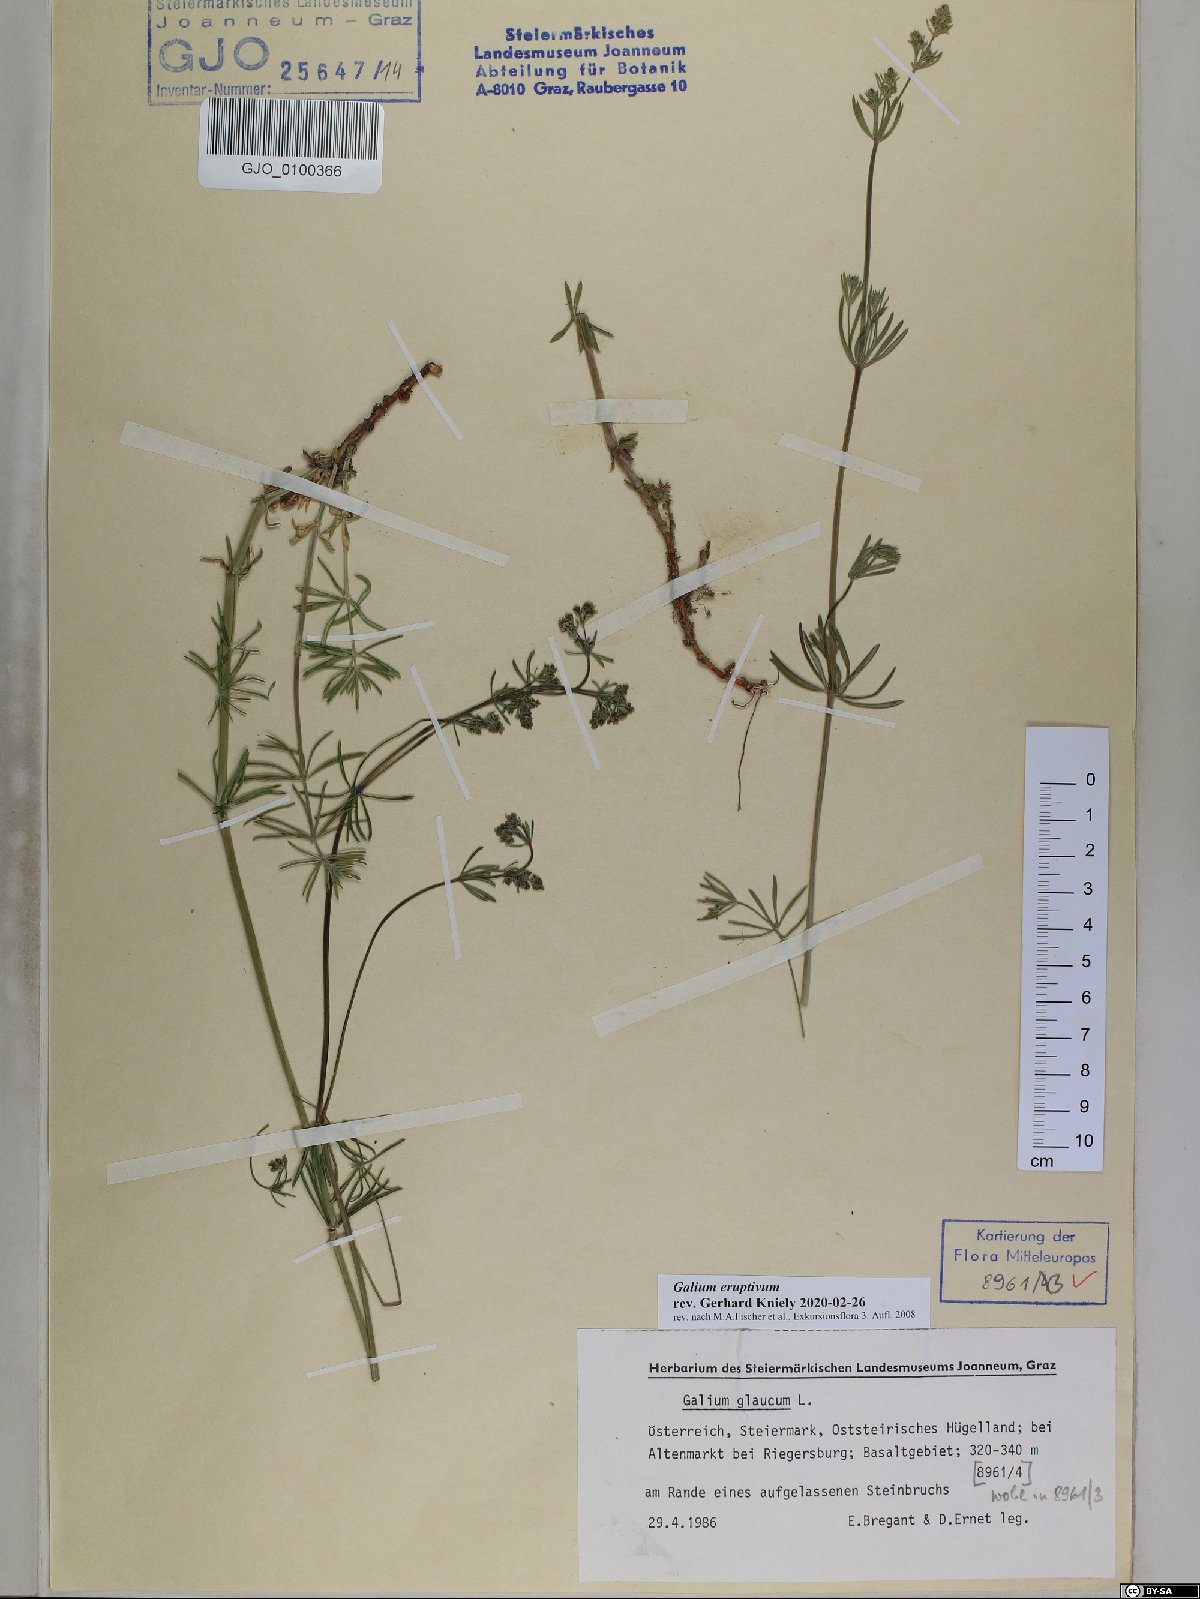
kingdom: Plantae
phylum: Tracheophyta
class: Magnoliopsida
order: Gentianales
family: Rubiaceae
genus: Galium
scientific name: Galium eruptivum
